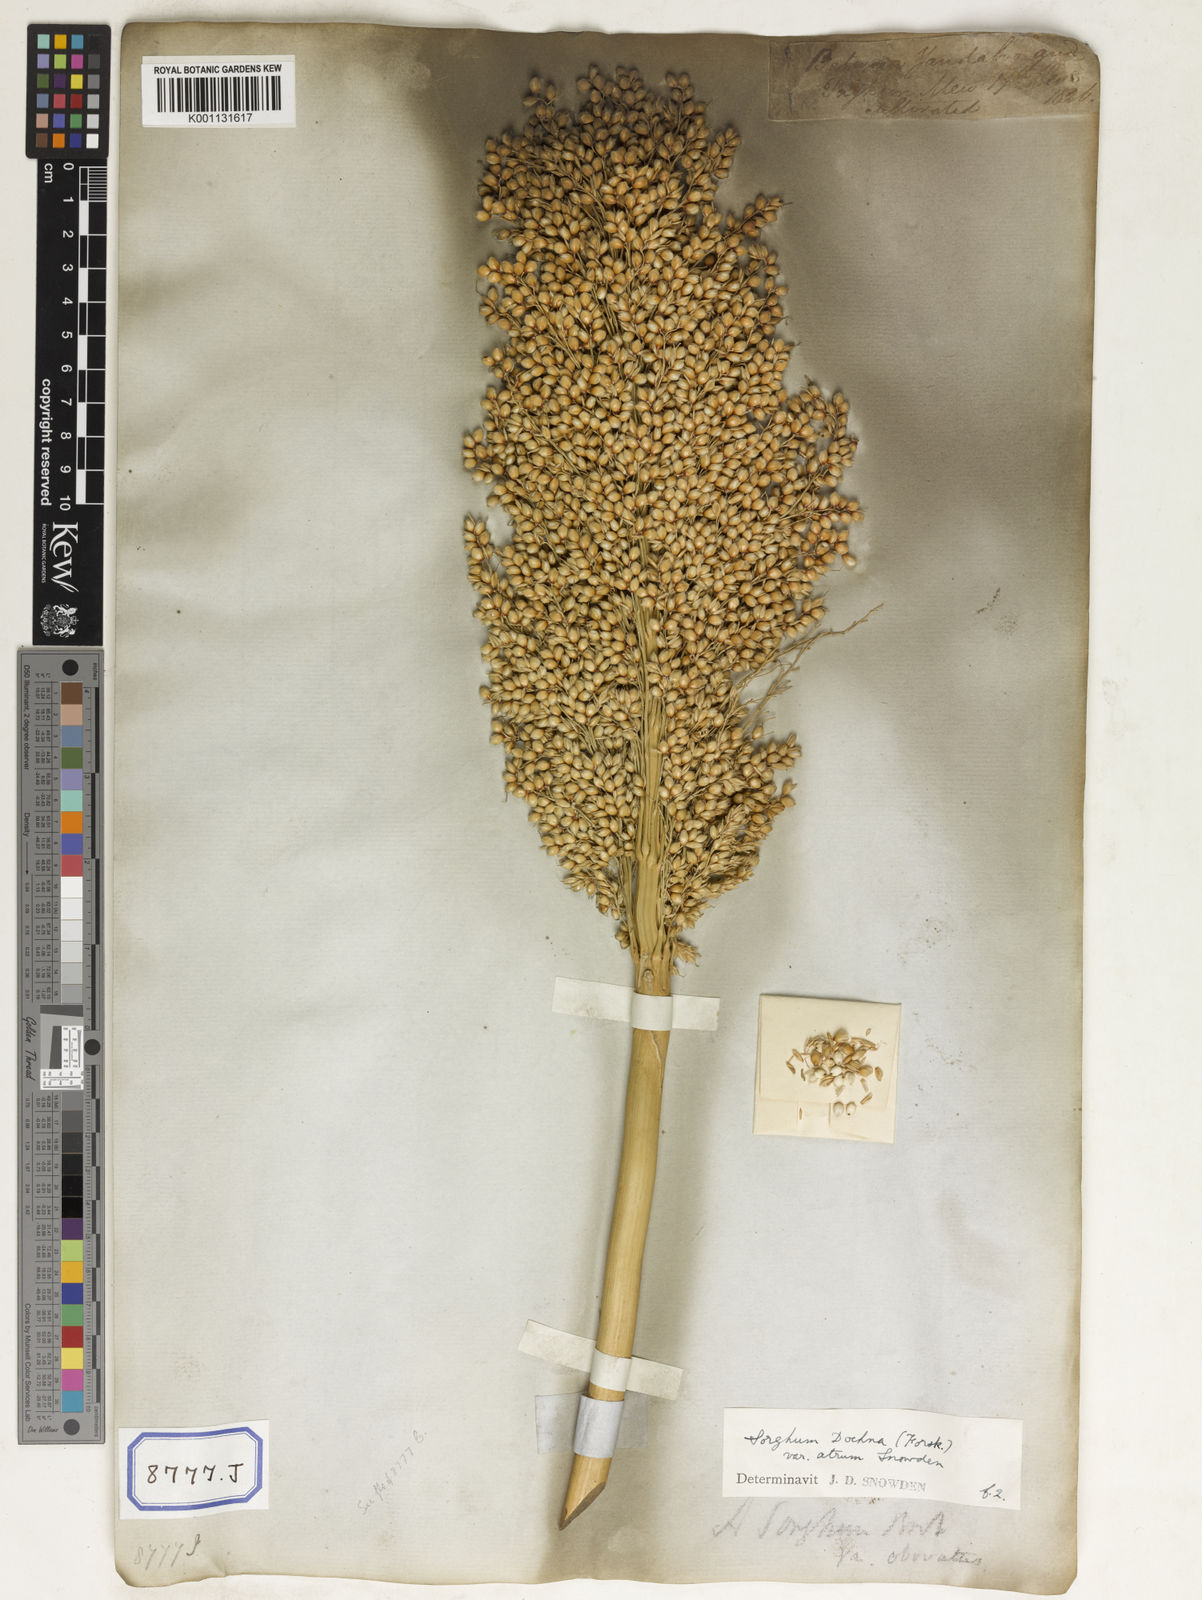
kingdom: Plantae
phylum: Tracheophyta
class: Liliopsida
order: Poales
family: Poaceae
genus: Sorghum
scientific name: Sorghum bicolor
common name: Sorghum
